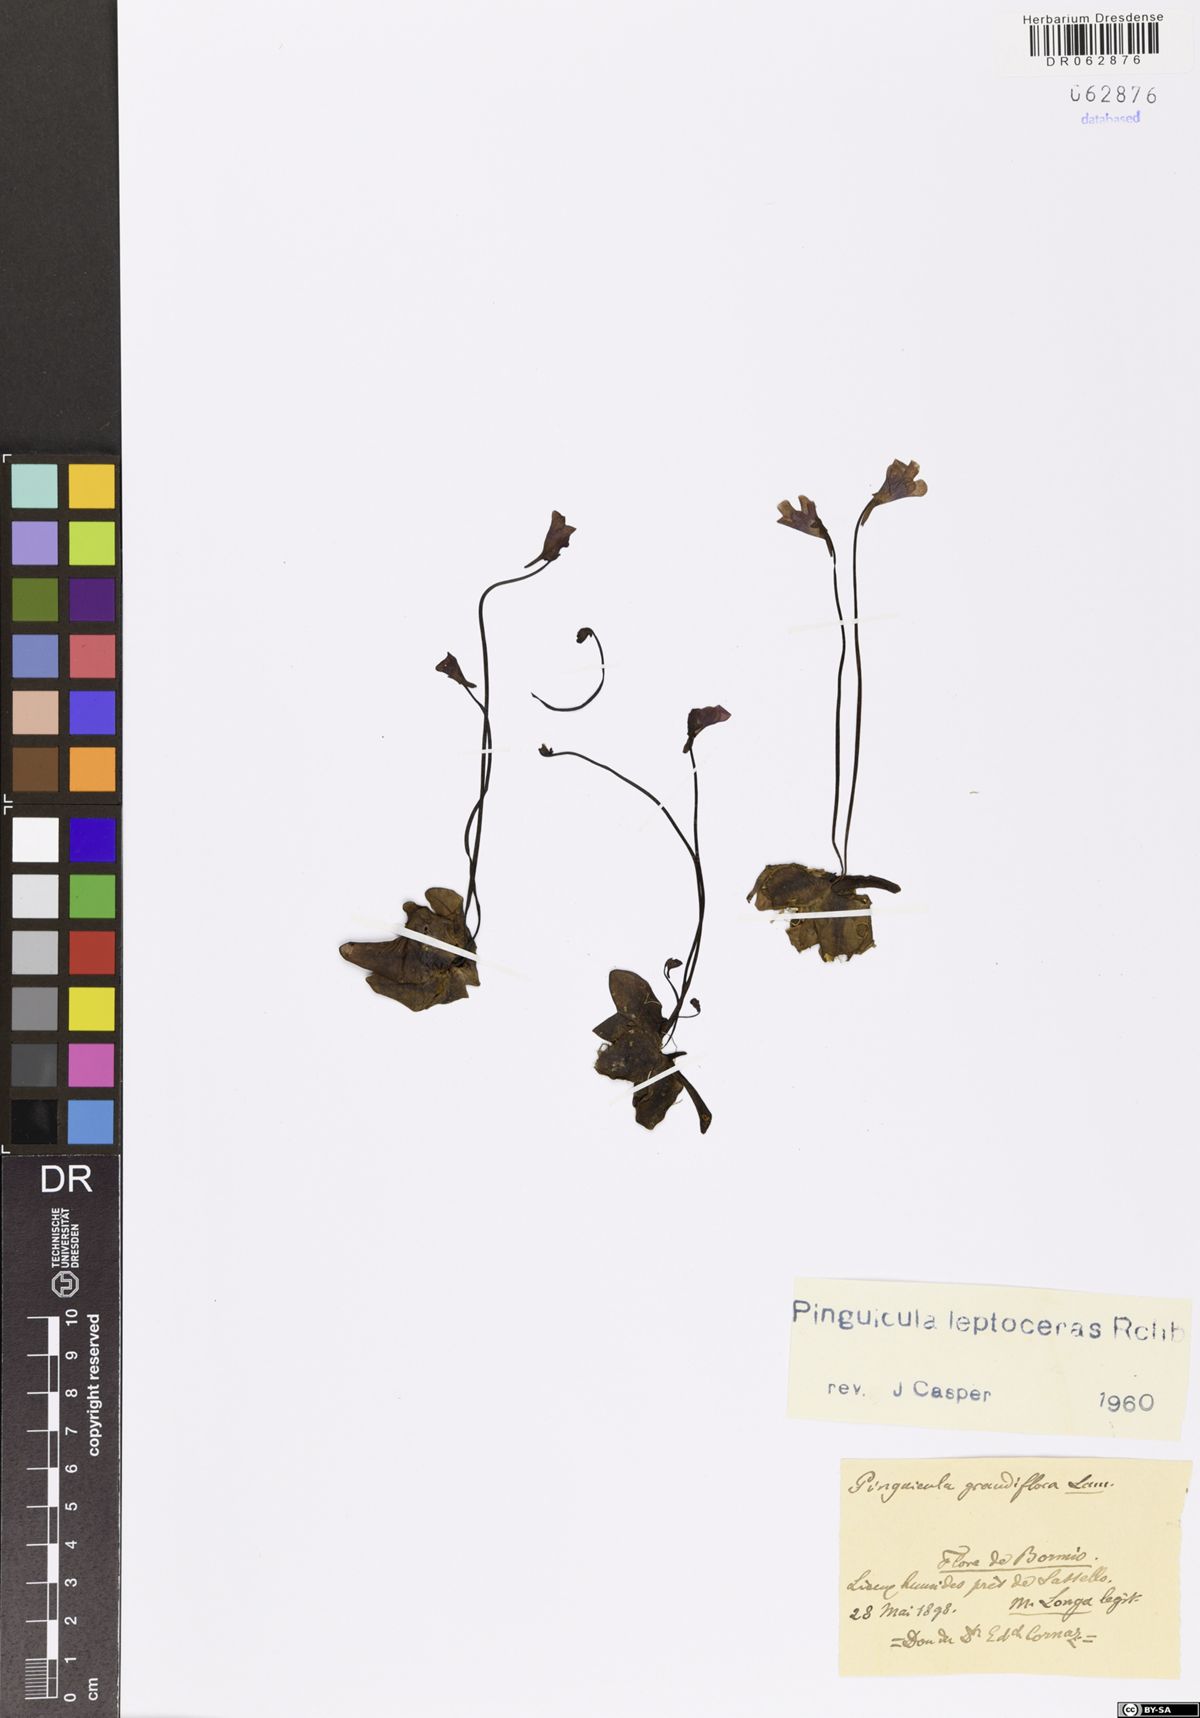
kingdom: Plantae
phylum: Tracheophyta
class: Magnoliopsida
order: Lamiales
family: Lentibulariaceae
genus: Pinguicula
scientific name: Pinguicula leptoceras
